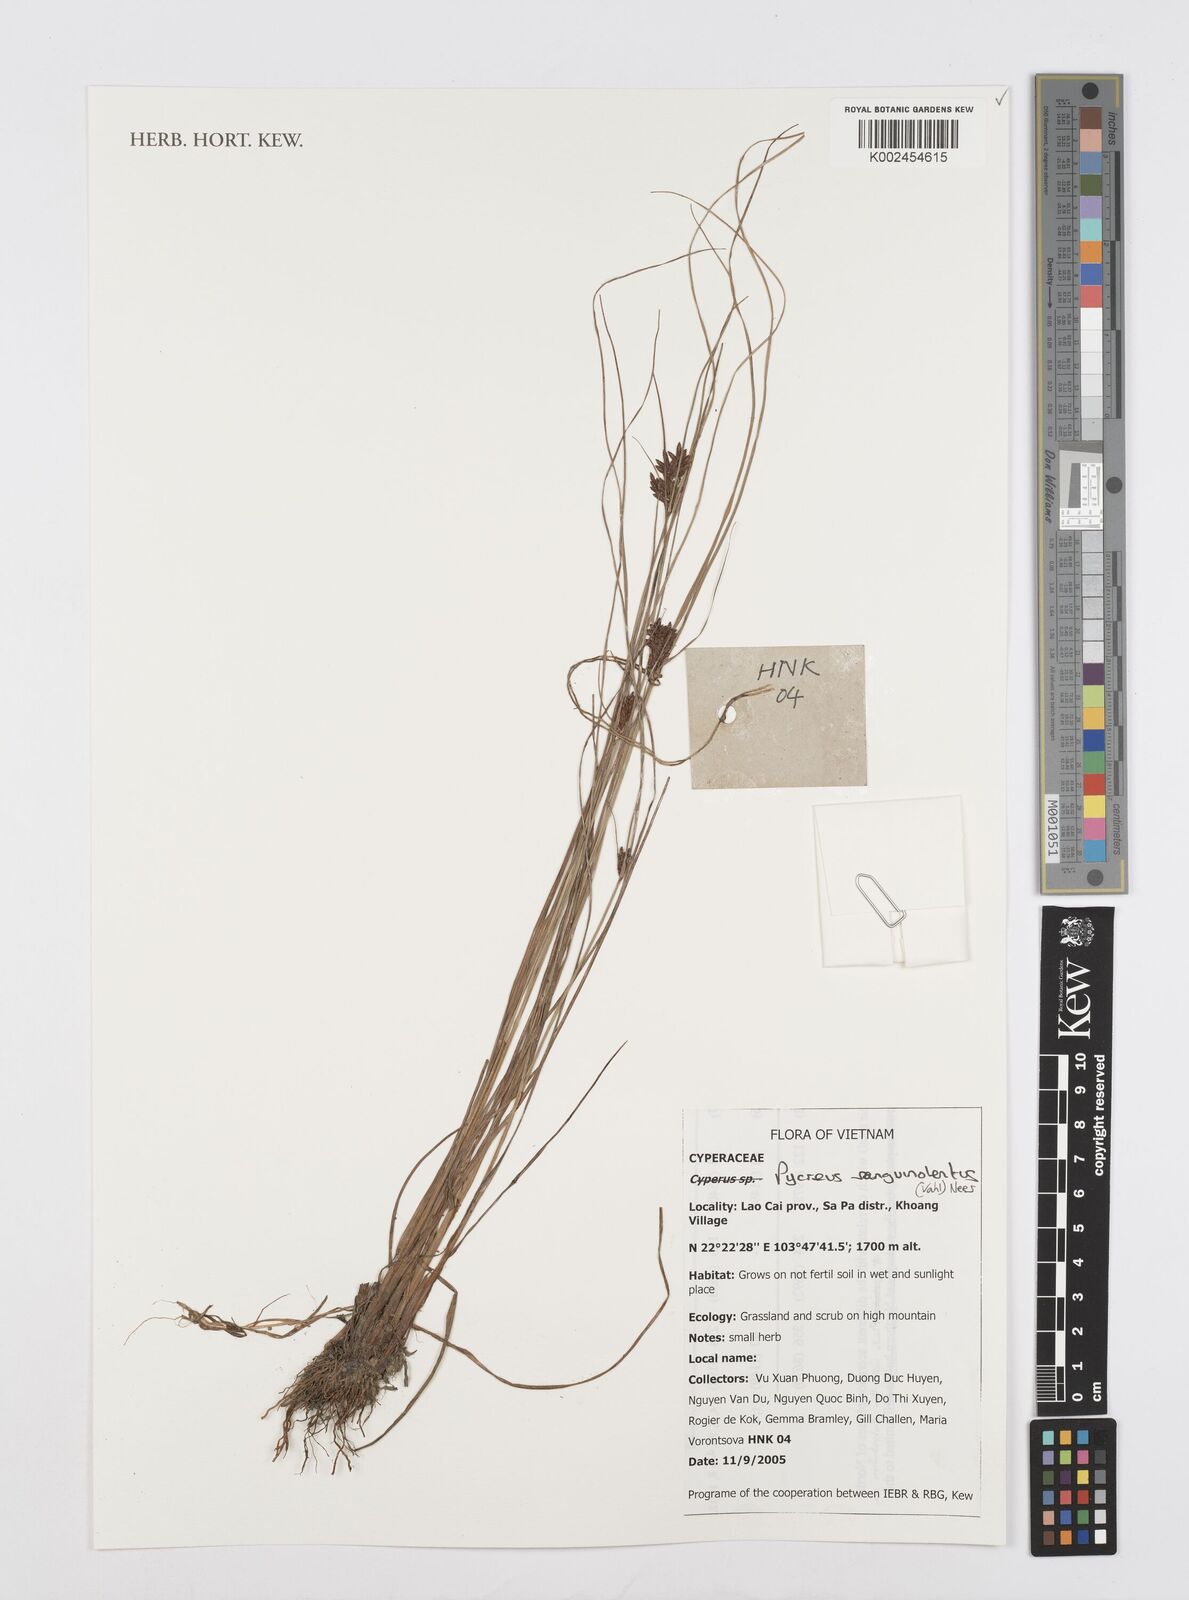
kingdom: Plantae
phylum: Tracheophyta
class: Liliopsida
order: Poales
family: Cyperaceae
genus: Cyperus
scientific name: Cyperus sanguinolentus
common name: Purpleglume flatsedge
